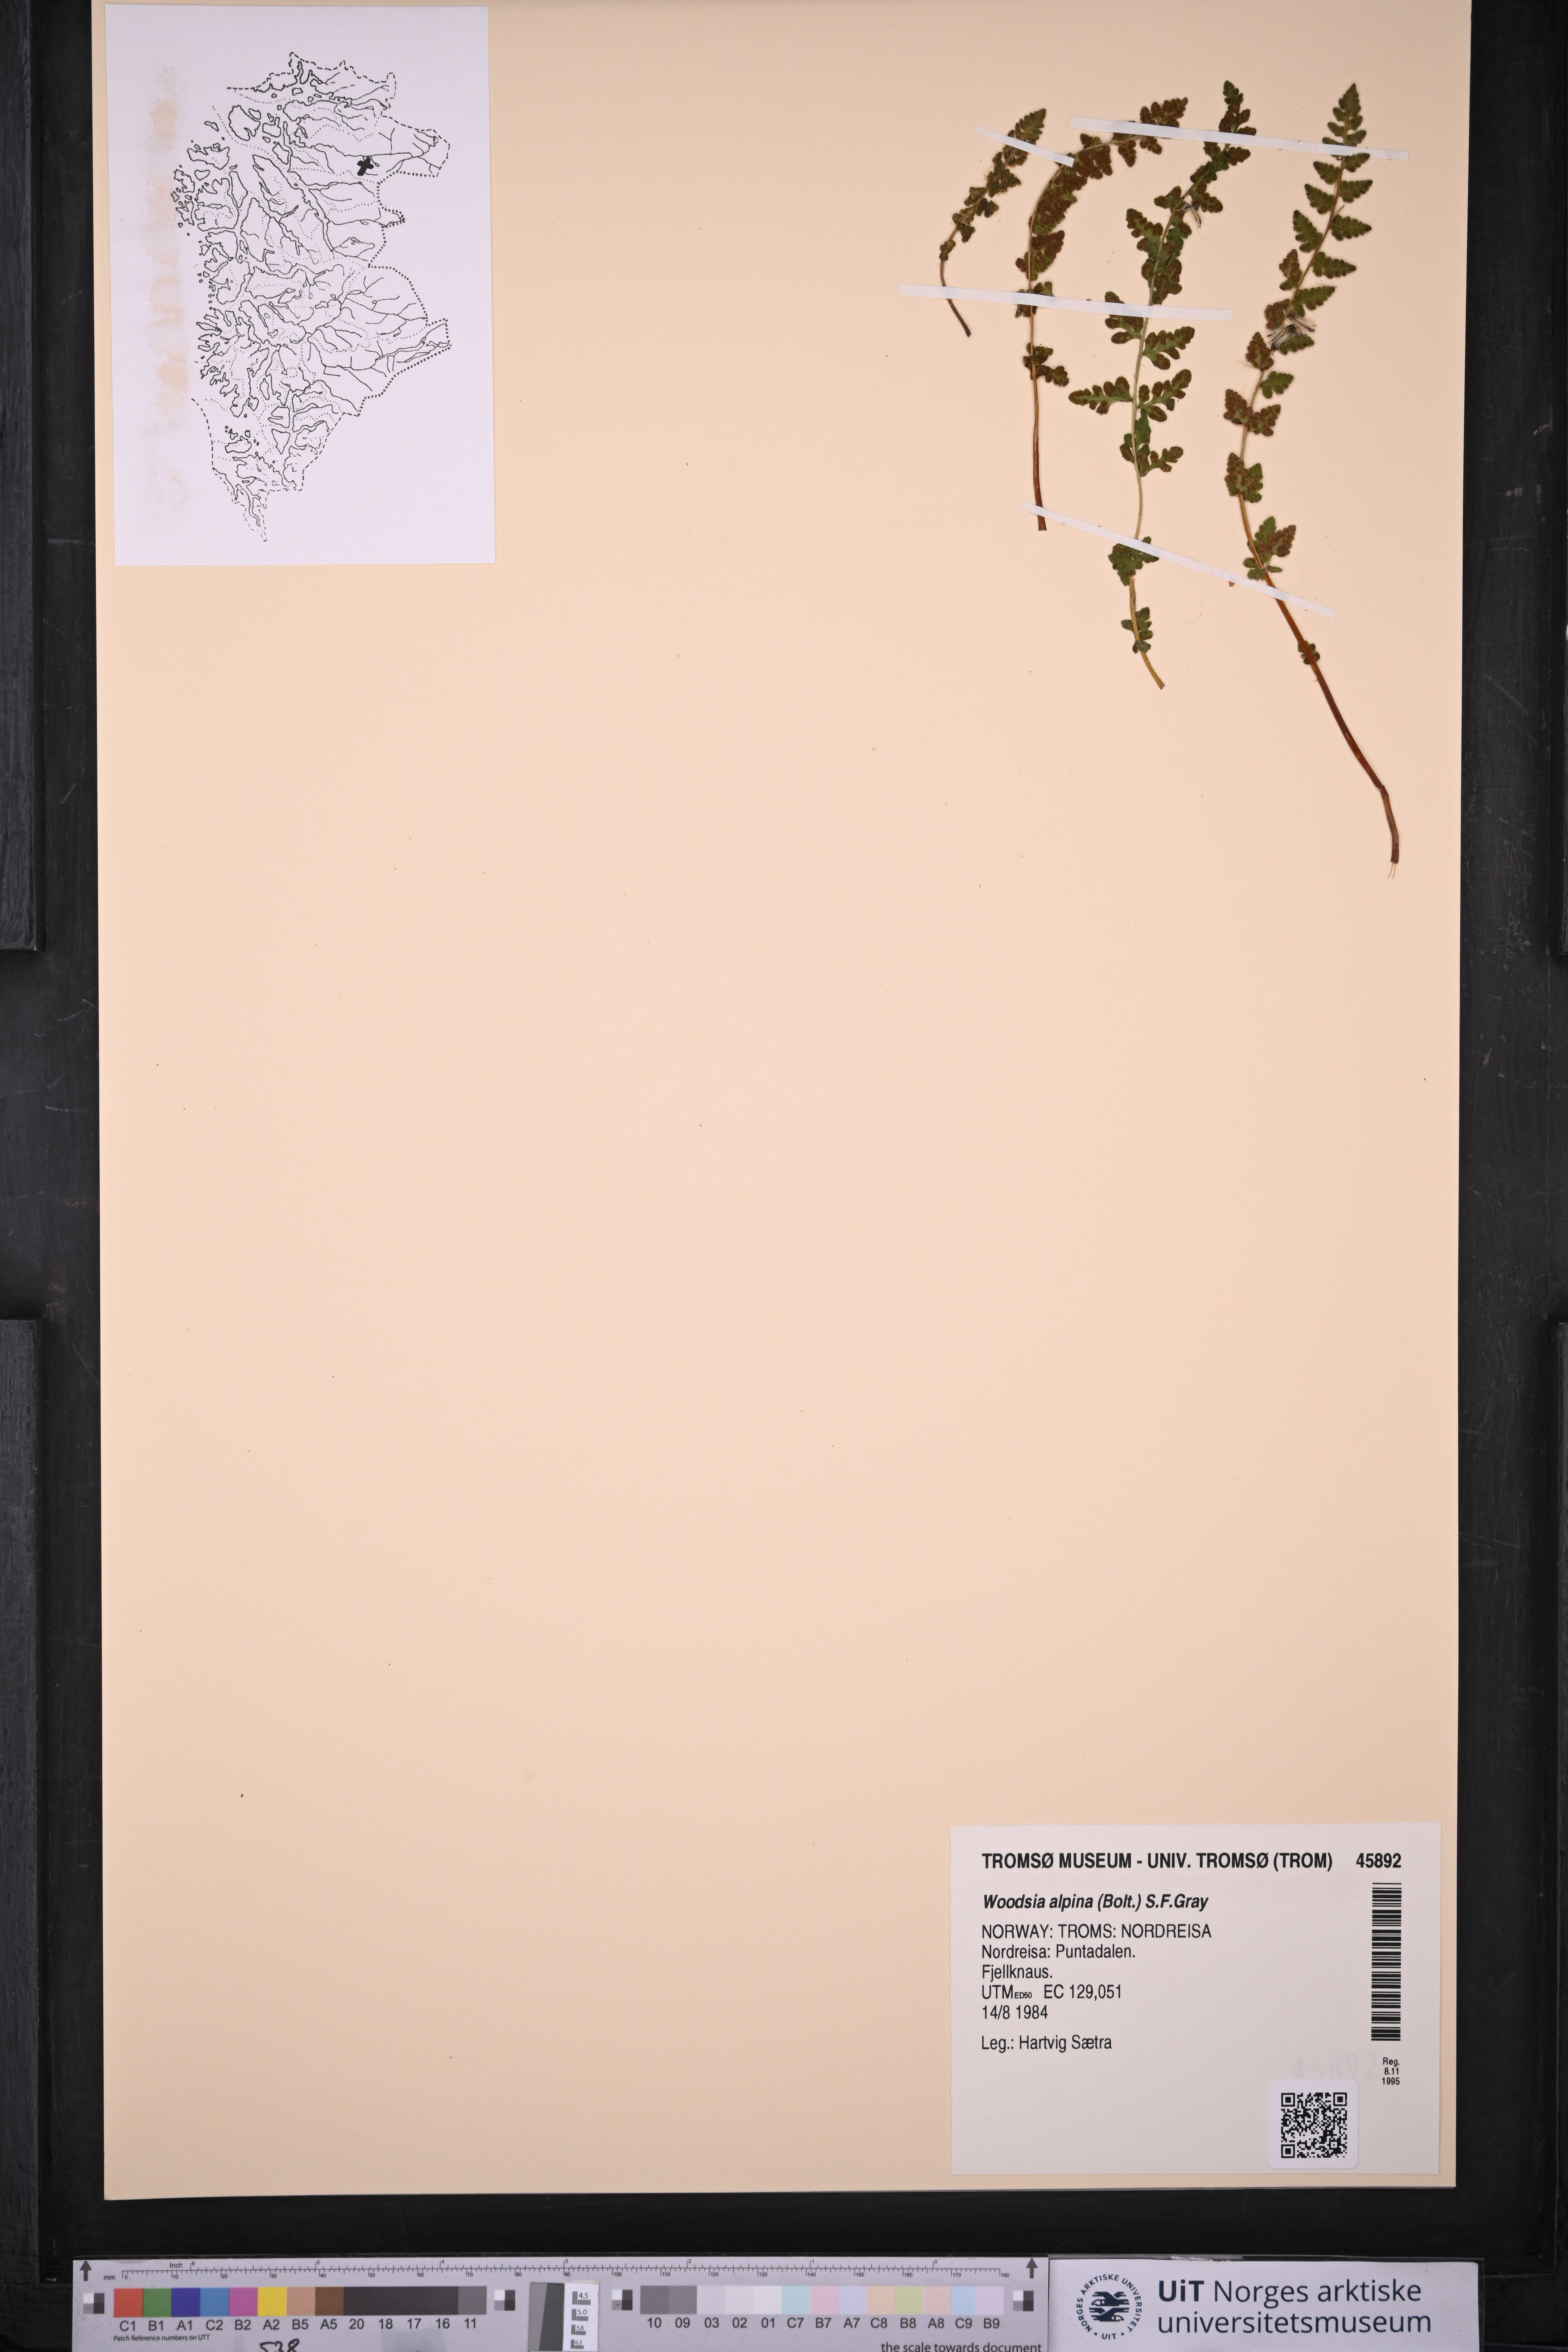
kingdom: Plantae
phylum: Tracheophyta
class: Polypodiopsida
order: Polypodiales
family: Woodsiaceae
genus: Woodsia
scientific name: Woodsia alpina
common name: Alpine woodsia
